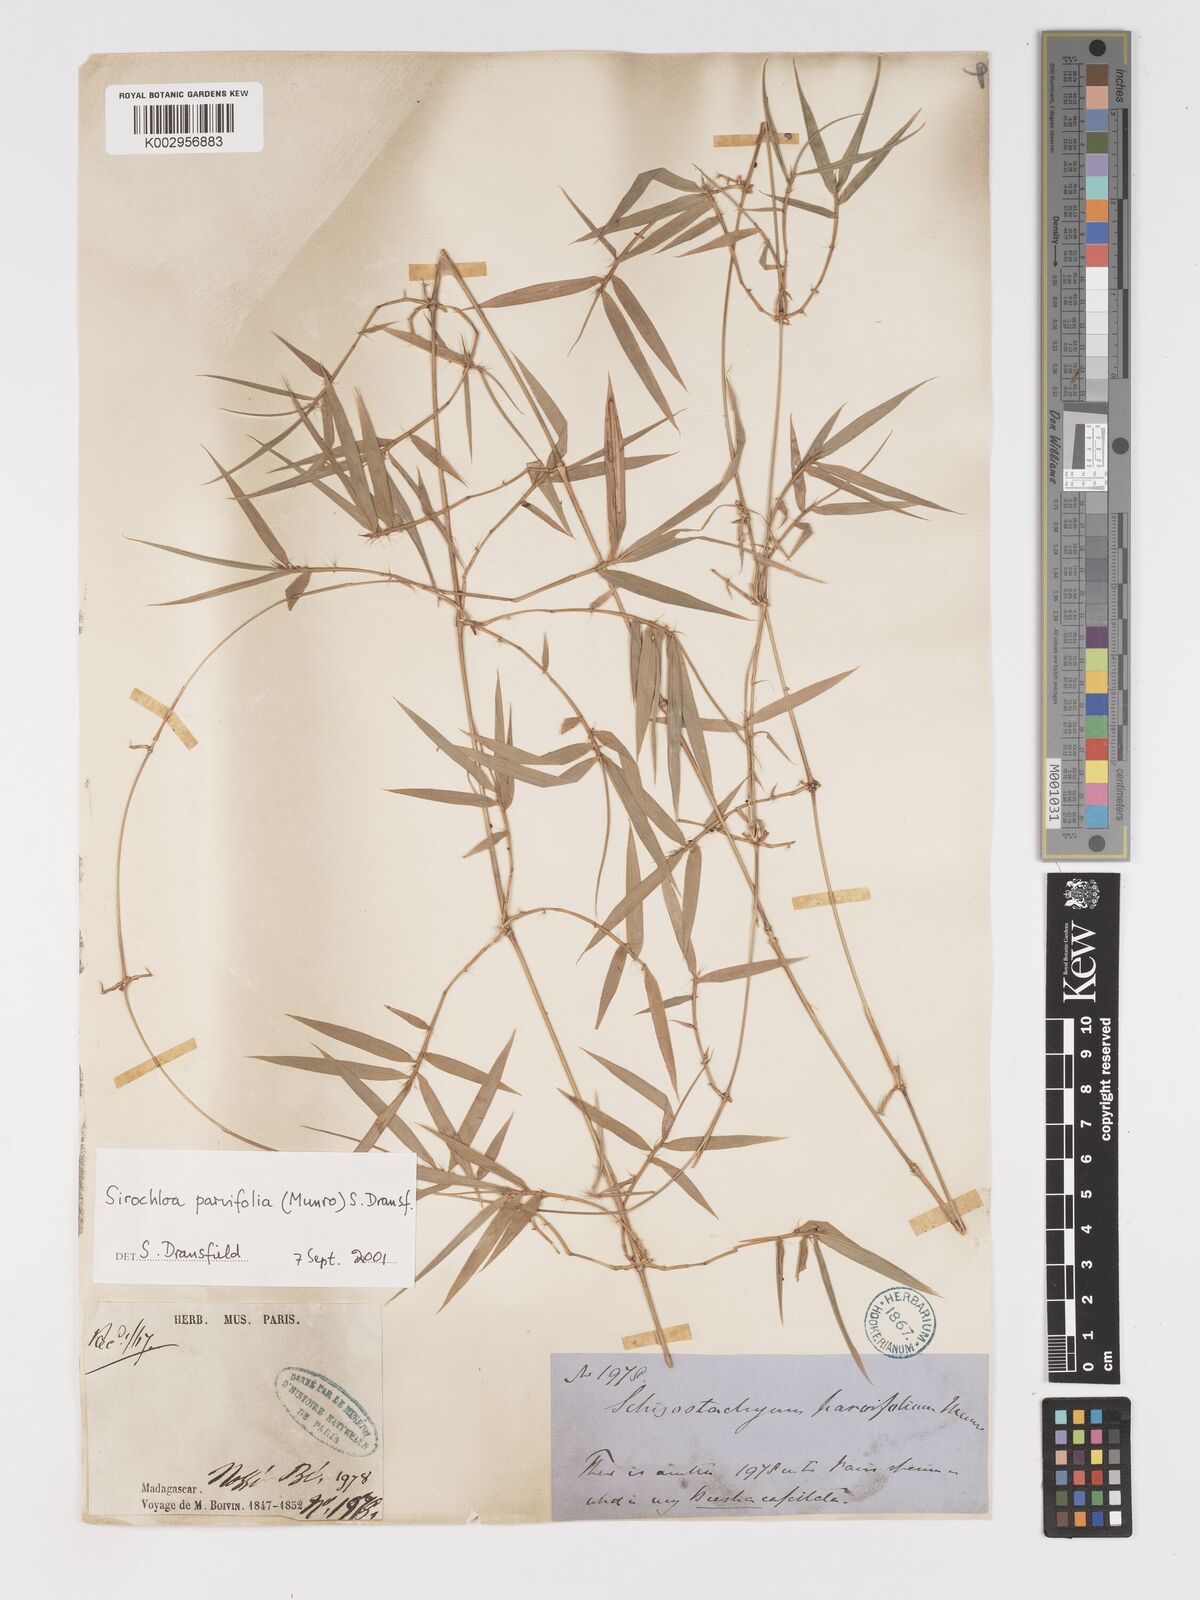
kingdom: Plantae
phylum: Tracheophyta
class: Liliopsida
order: Poales
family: Poaceae
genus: Sirochloa
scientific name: Sirochloa parvifolia
